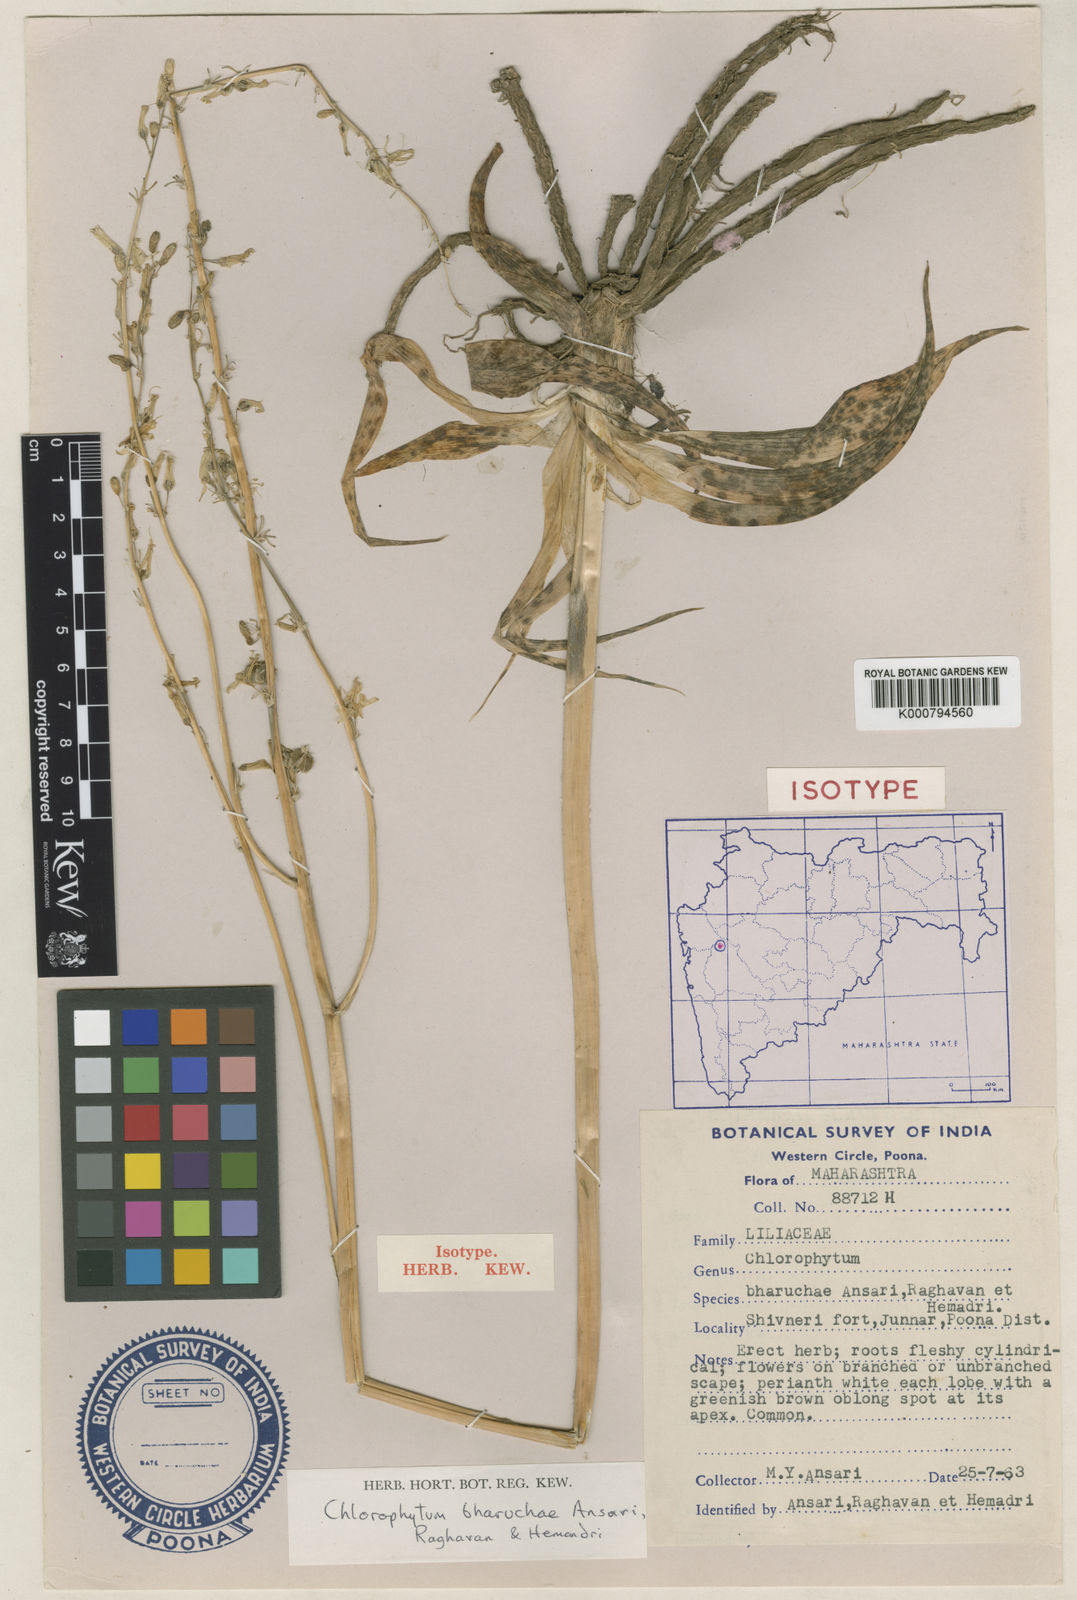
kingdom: Plantae
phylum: Tracheophyta
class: Liliopsida
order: Asparagales
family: Asparagaceae
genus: Chlorophytum
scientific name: Chlorophytum bharuchae
